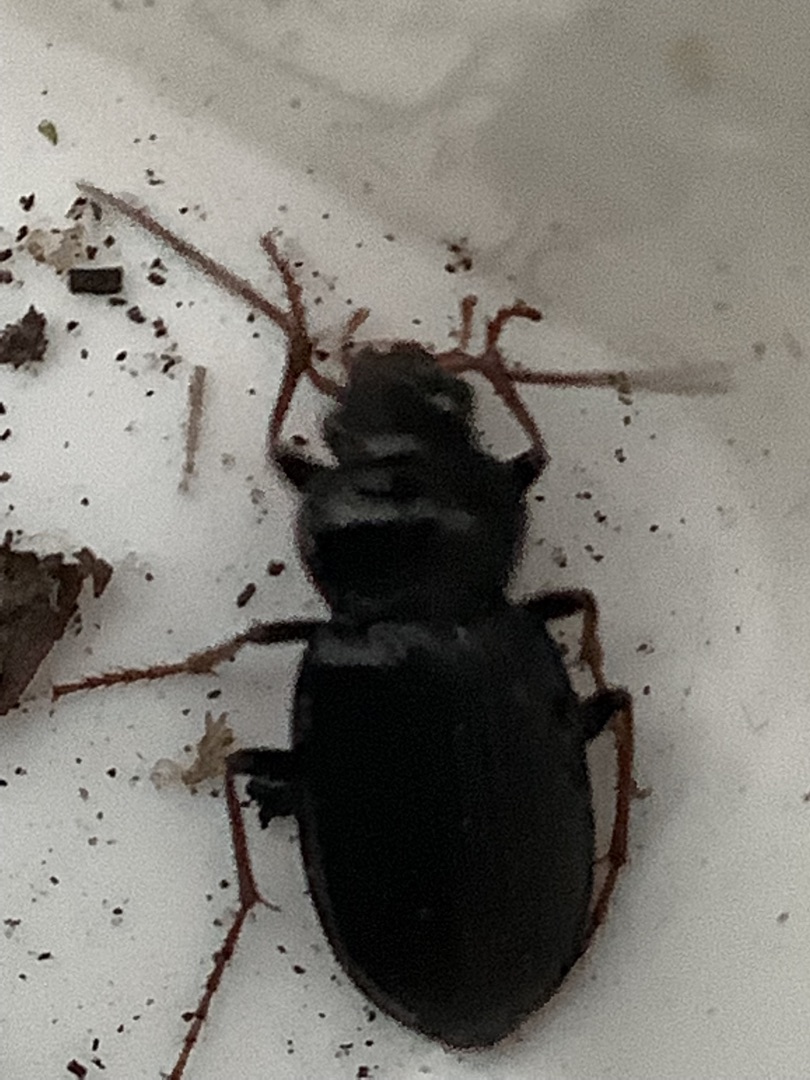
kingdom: Animalia
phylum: Arthropoda
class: Insecta
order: Coleoptera
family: Carabidae
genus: Nebria
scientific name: Nebria brevicollis
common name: Skovfladløber
